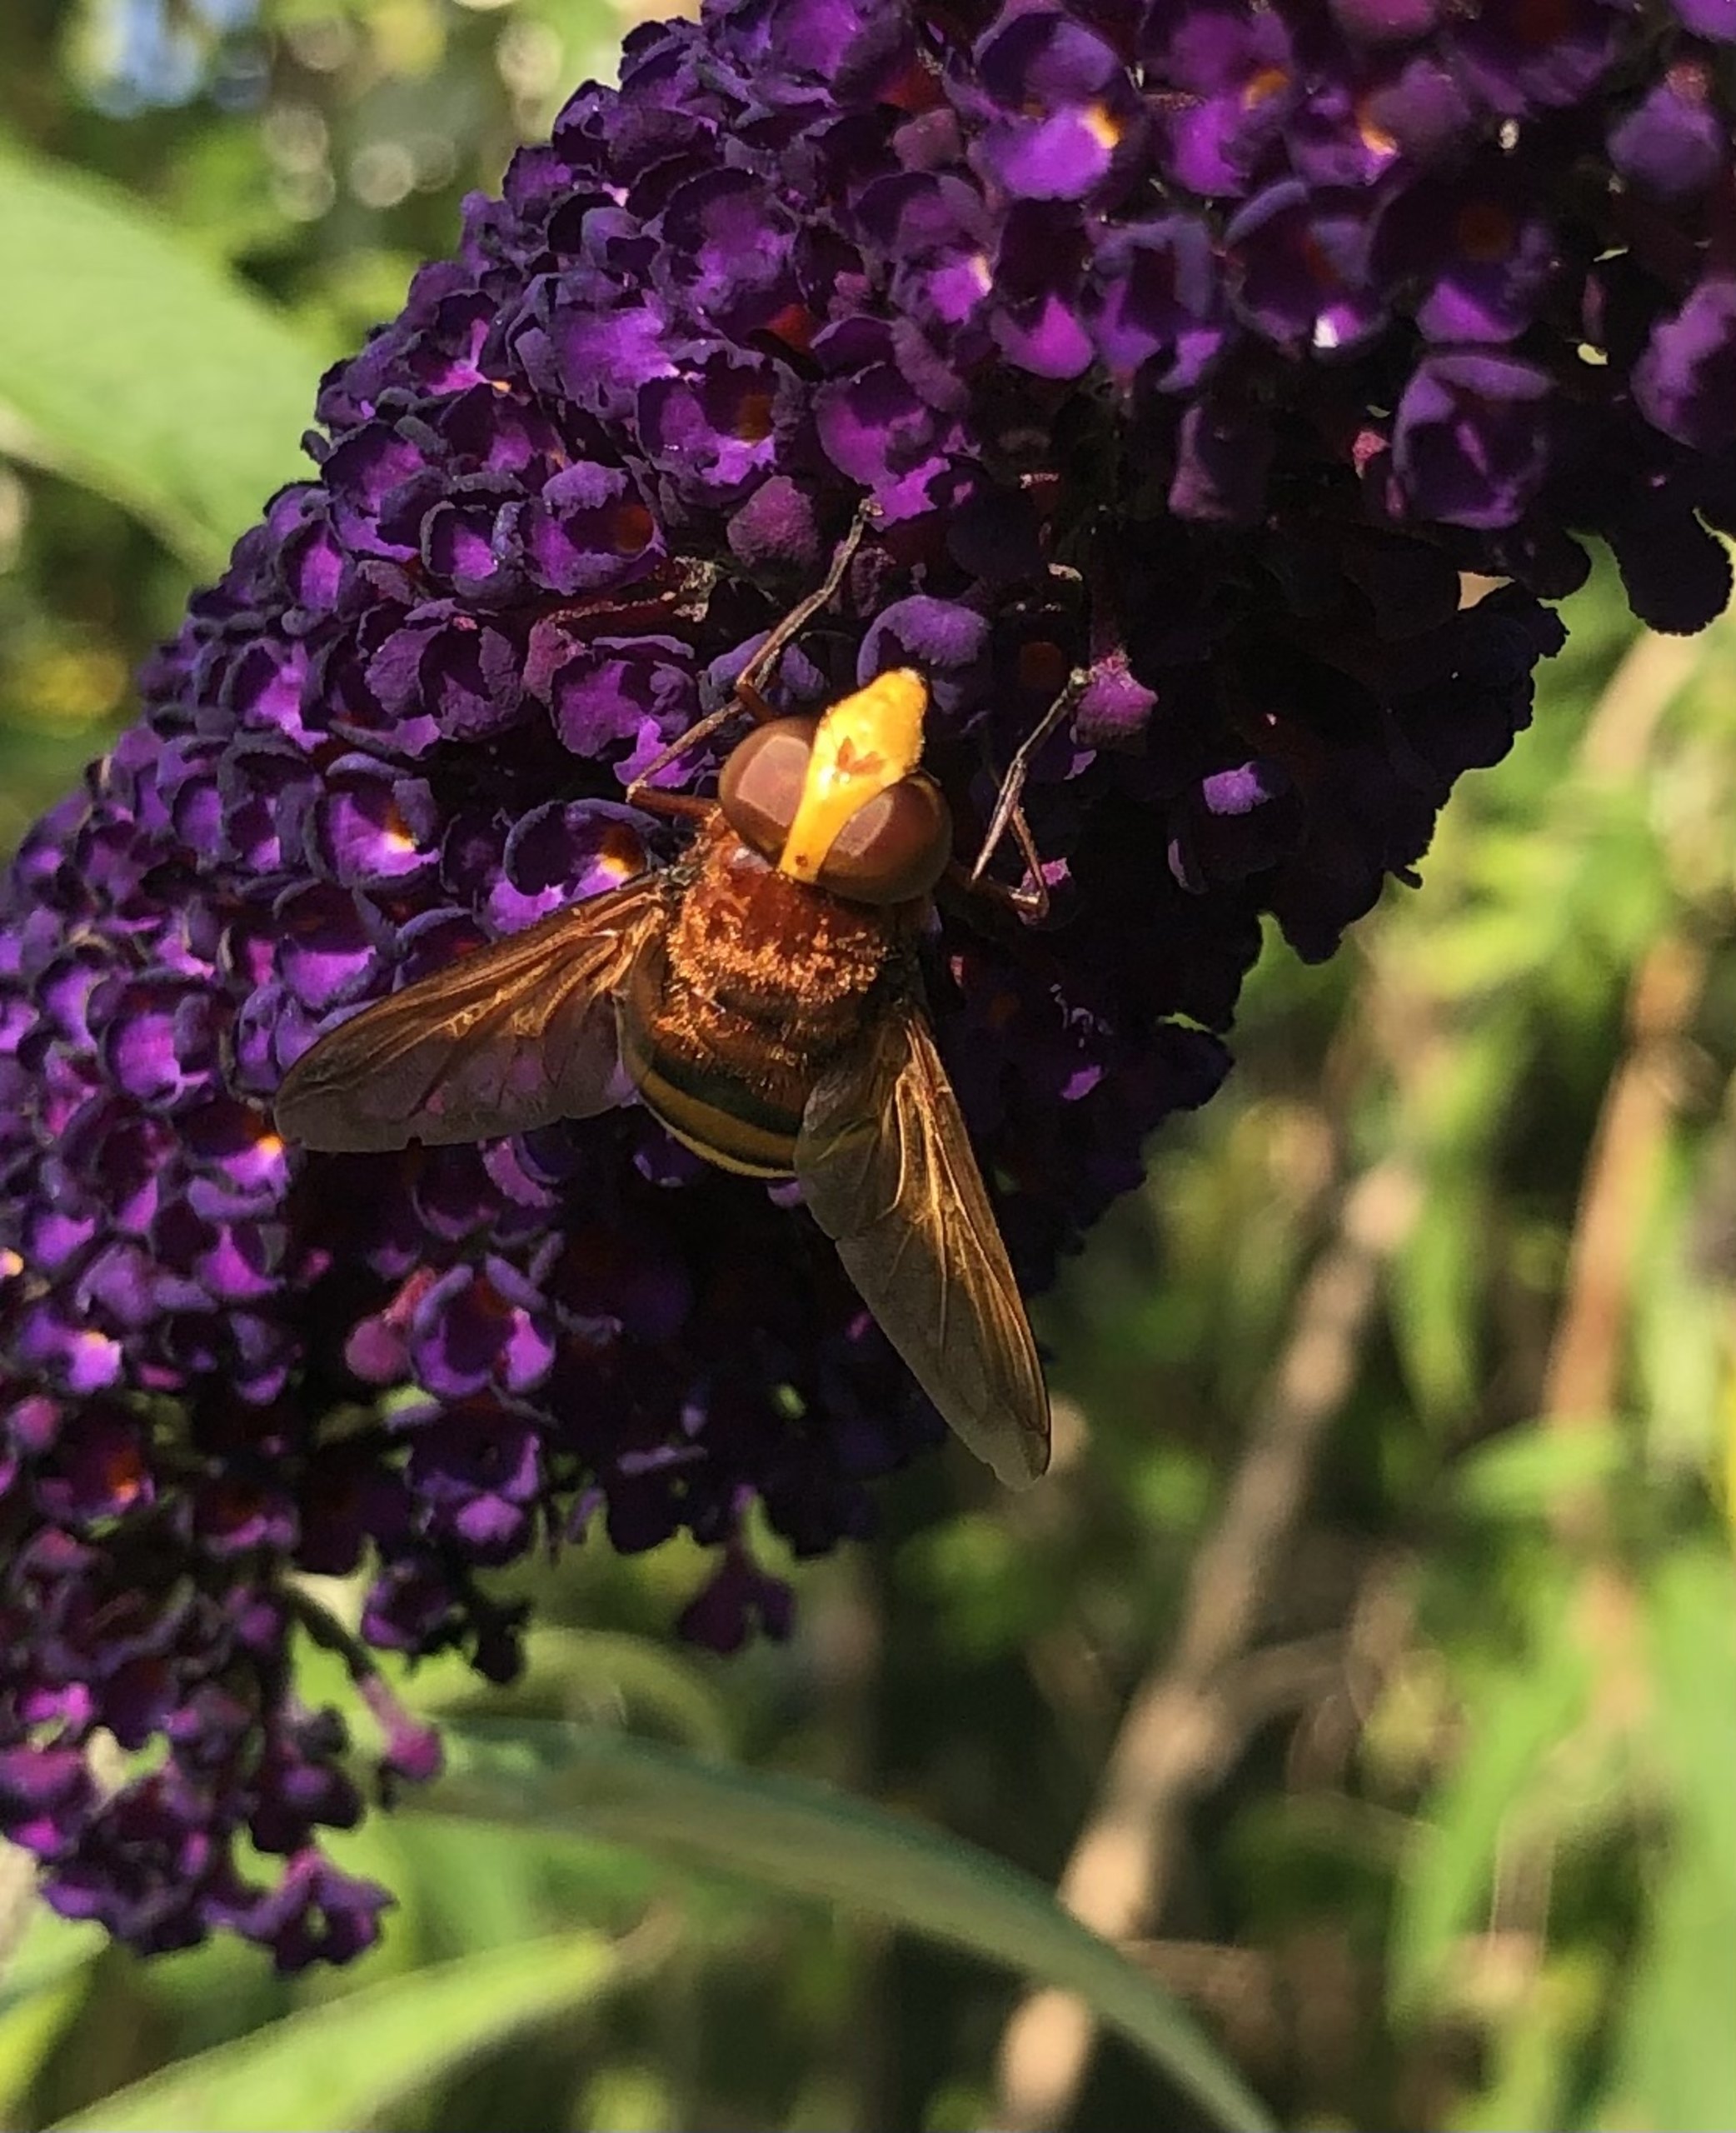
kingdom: Animalia
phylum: Arthropoda
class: Insecta
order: Diptera
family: Syrphidae
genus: Volucella
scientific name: Volucella zonaria
